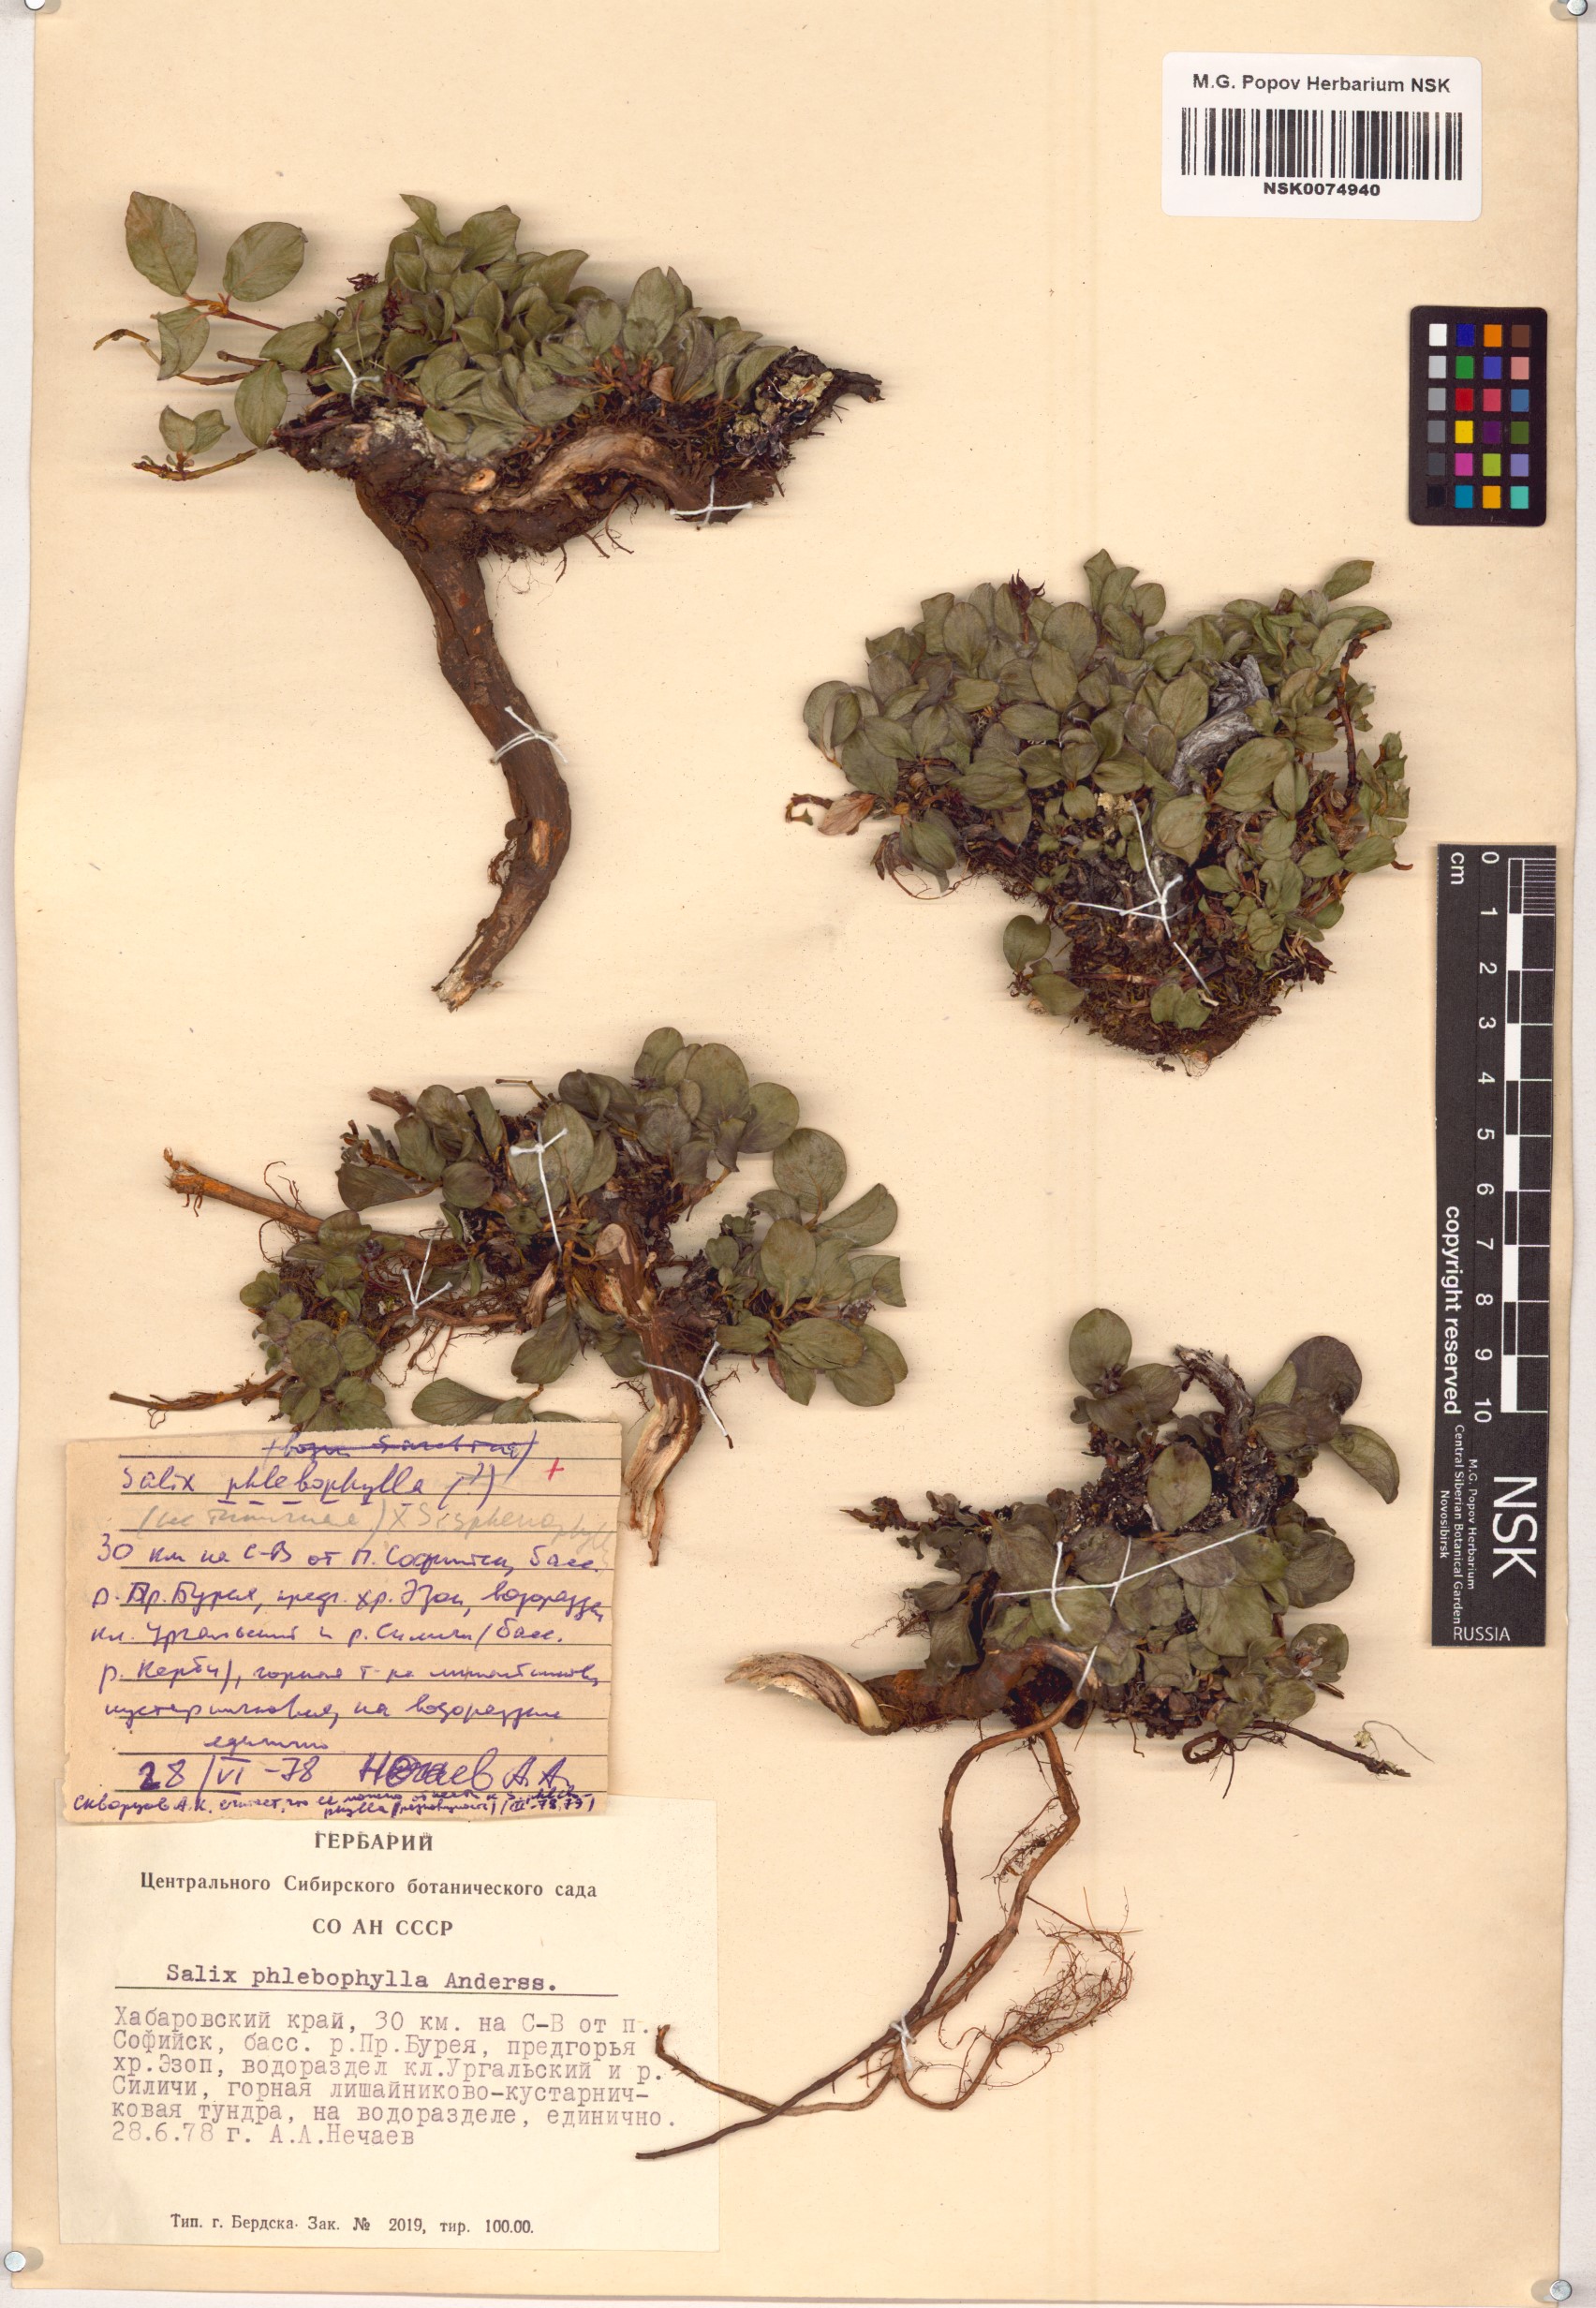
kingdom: Plantae
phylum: Tracheophyta
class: Magnoliopsida
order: Malpighiales
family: Salicaceae
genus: Salix
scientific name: Salix phlebophylla
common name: Skeleton-leaved willow
